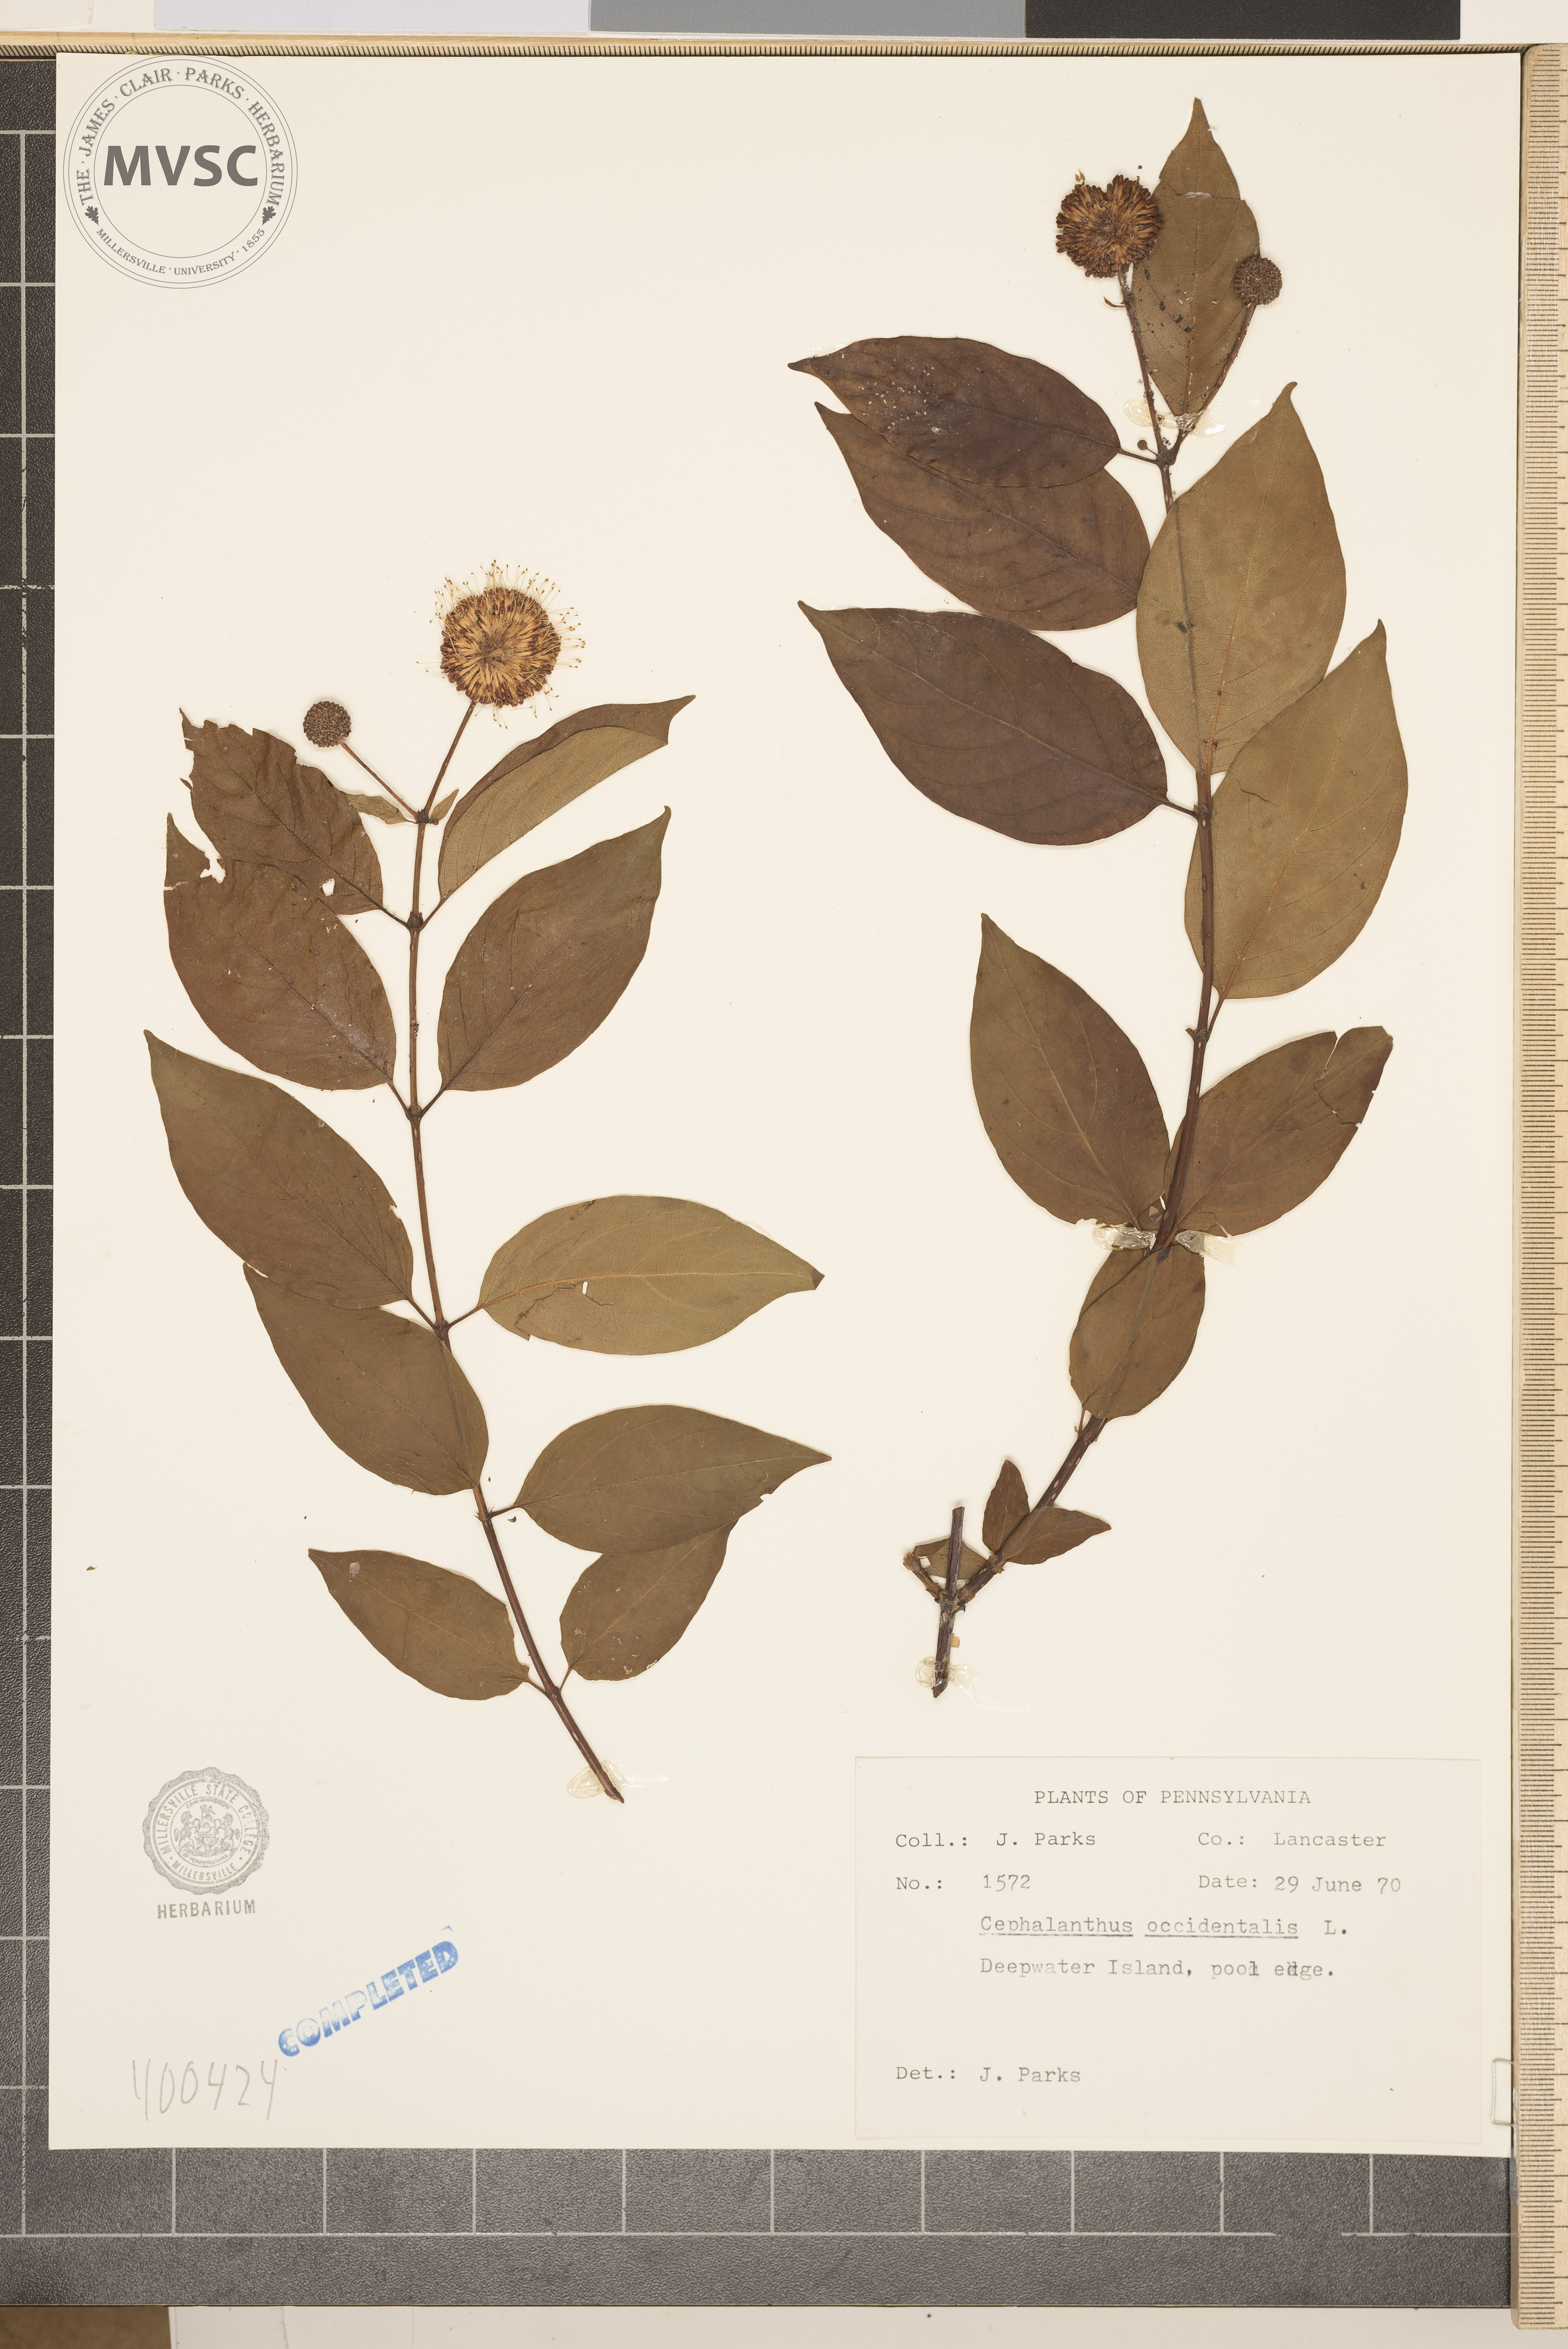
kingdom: Plantae
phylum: Tracheophyta
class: Magnoliopsida
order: Gentianales
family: Rubiaceae
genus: Cephalanthus
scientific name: Cephalanthus occidentalis
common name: buttonbush
